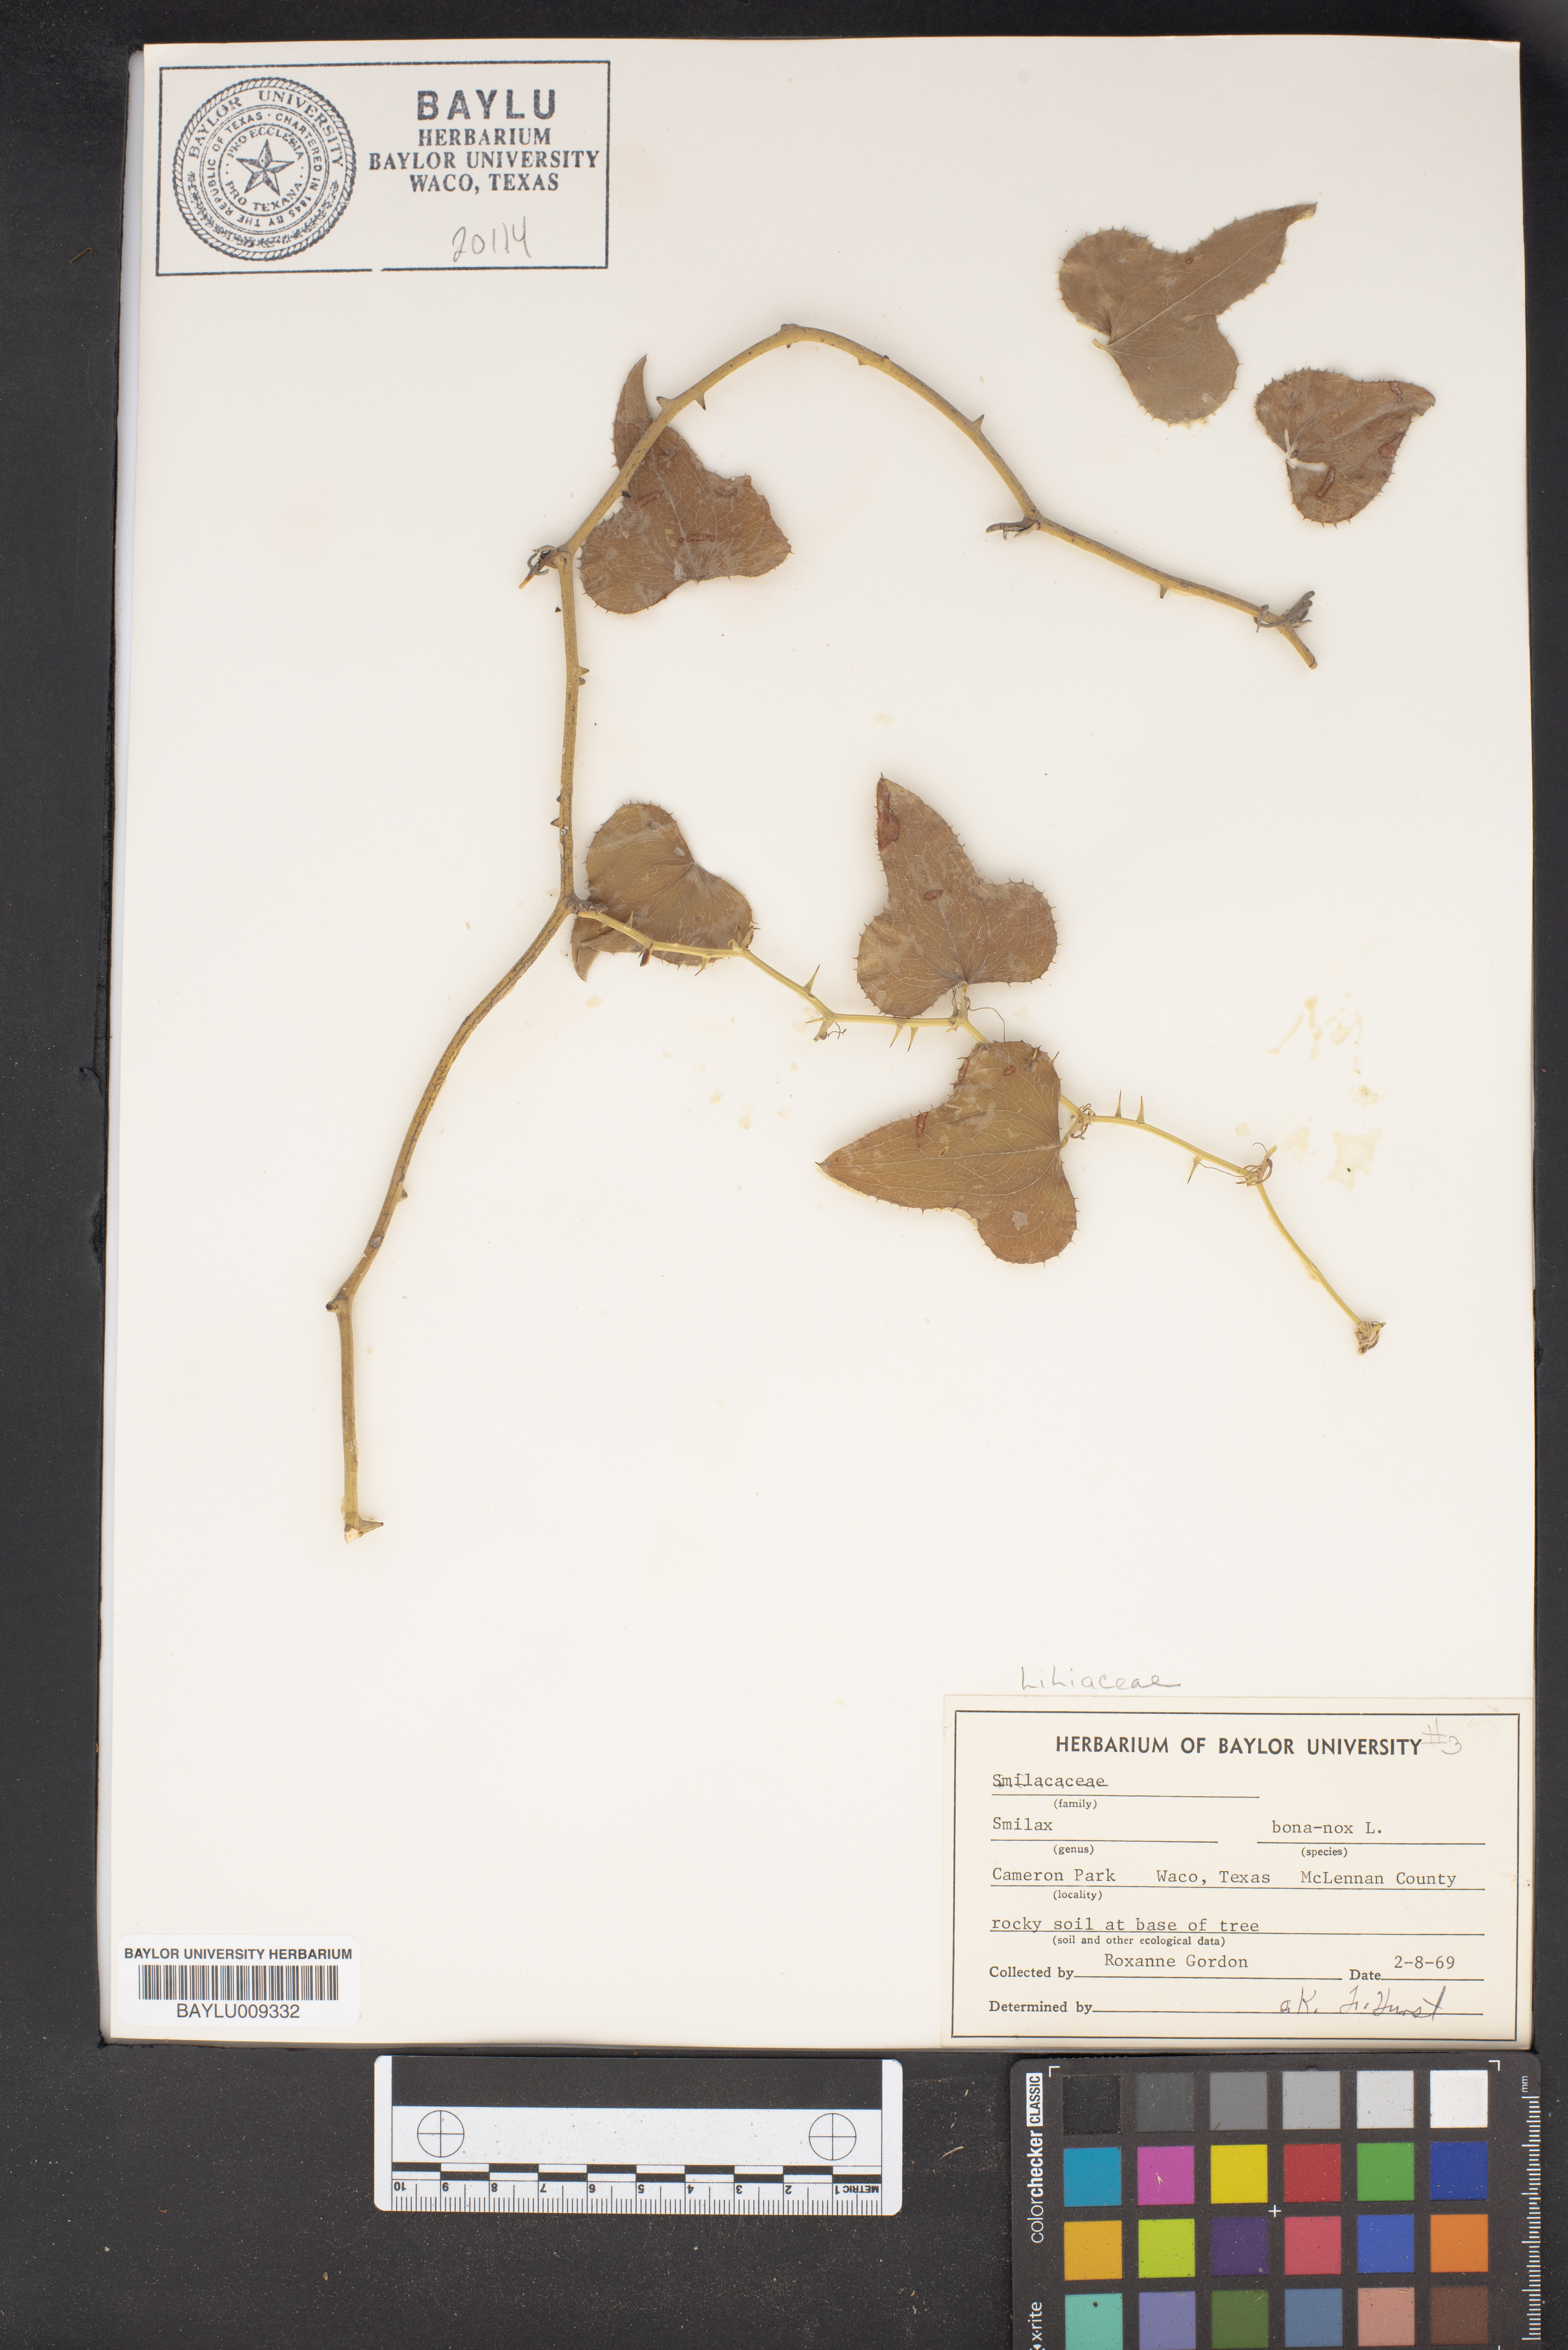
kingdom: Plantae
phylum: Tracheophyta
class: Liliopsida
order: Liliales
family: Smilacaceae
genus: Smilax
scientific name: Smilax bona-nox
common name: Catbrier
